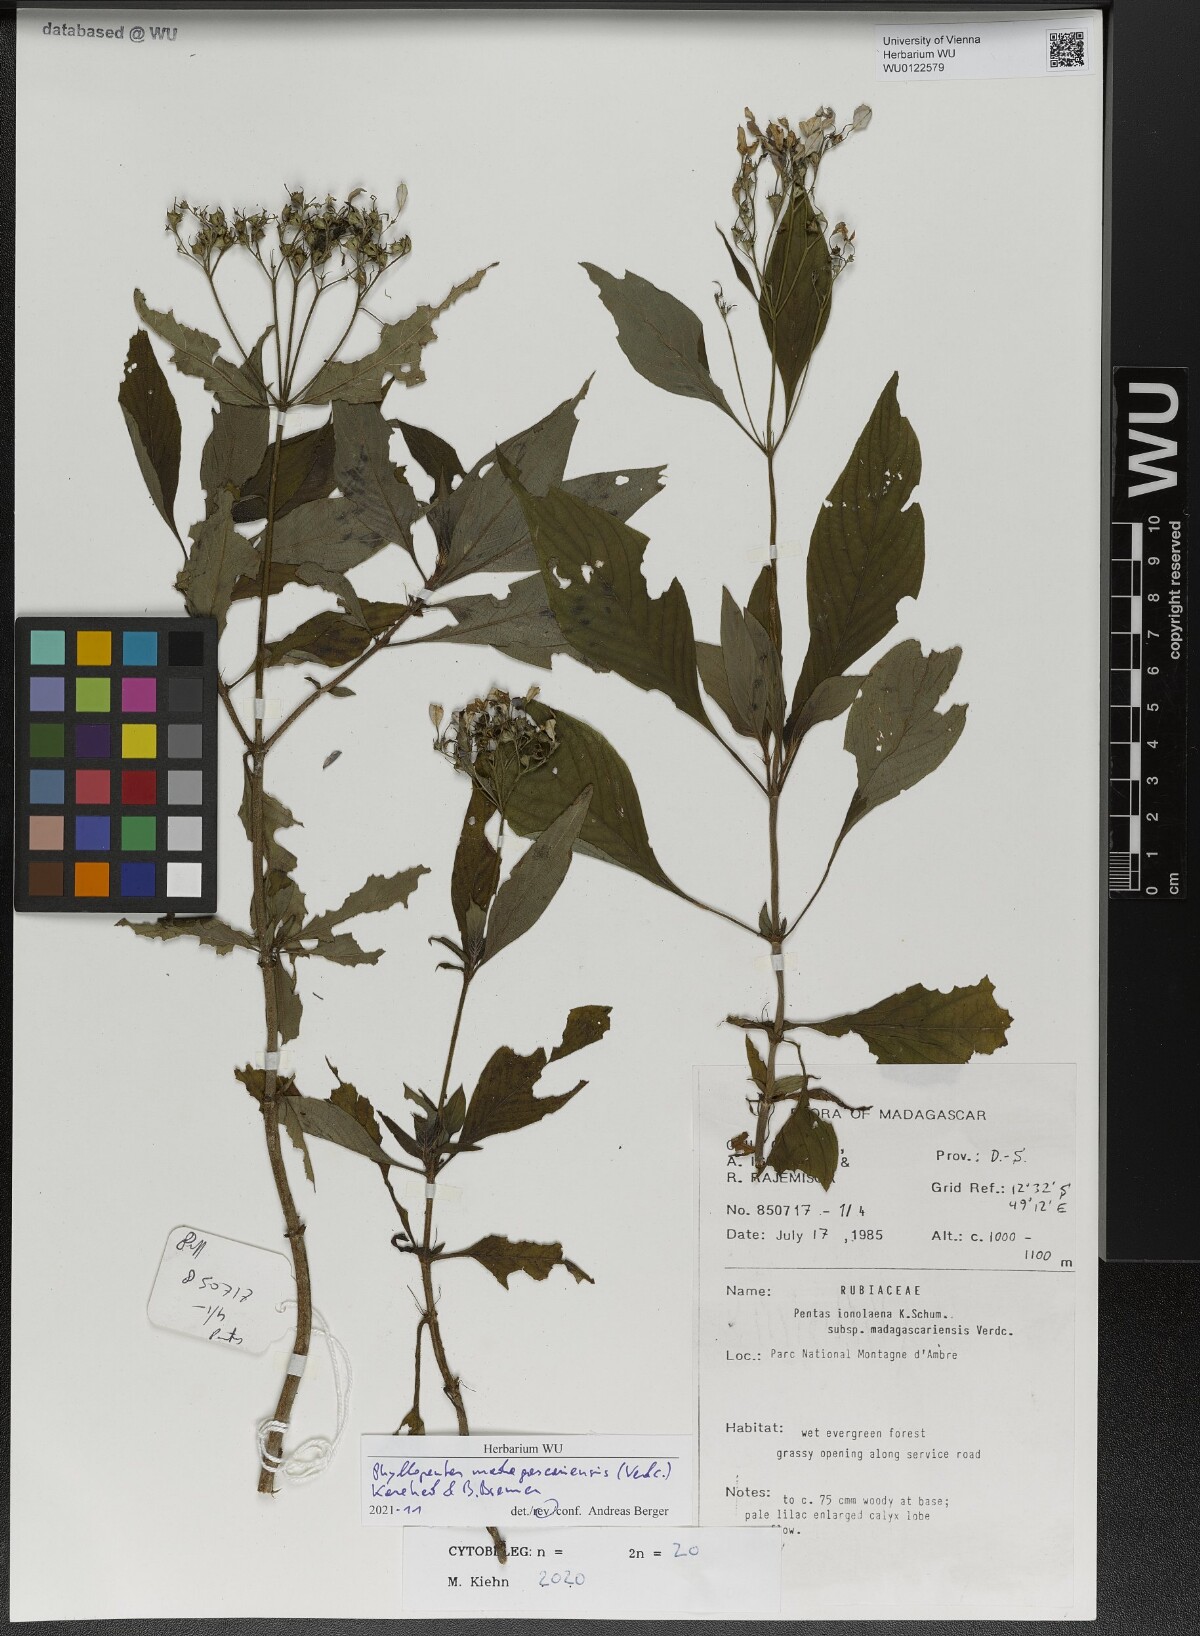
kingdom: Plantae
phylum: Tracheophyta
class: Magnoliopsida
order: Gentianales
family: Rubiaceae
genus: Phyllopentas
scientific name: Phyllopentas madagascariensis
